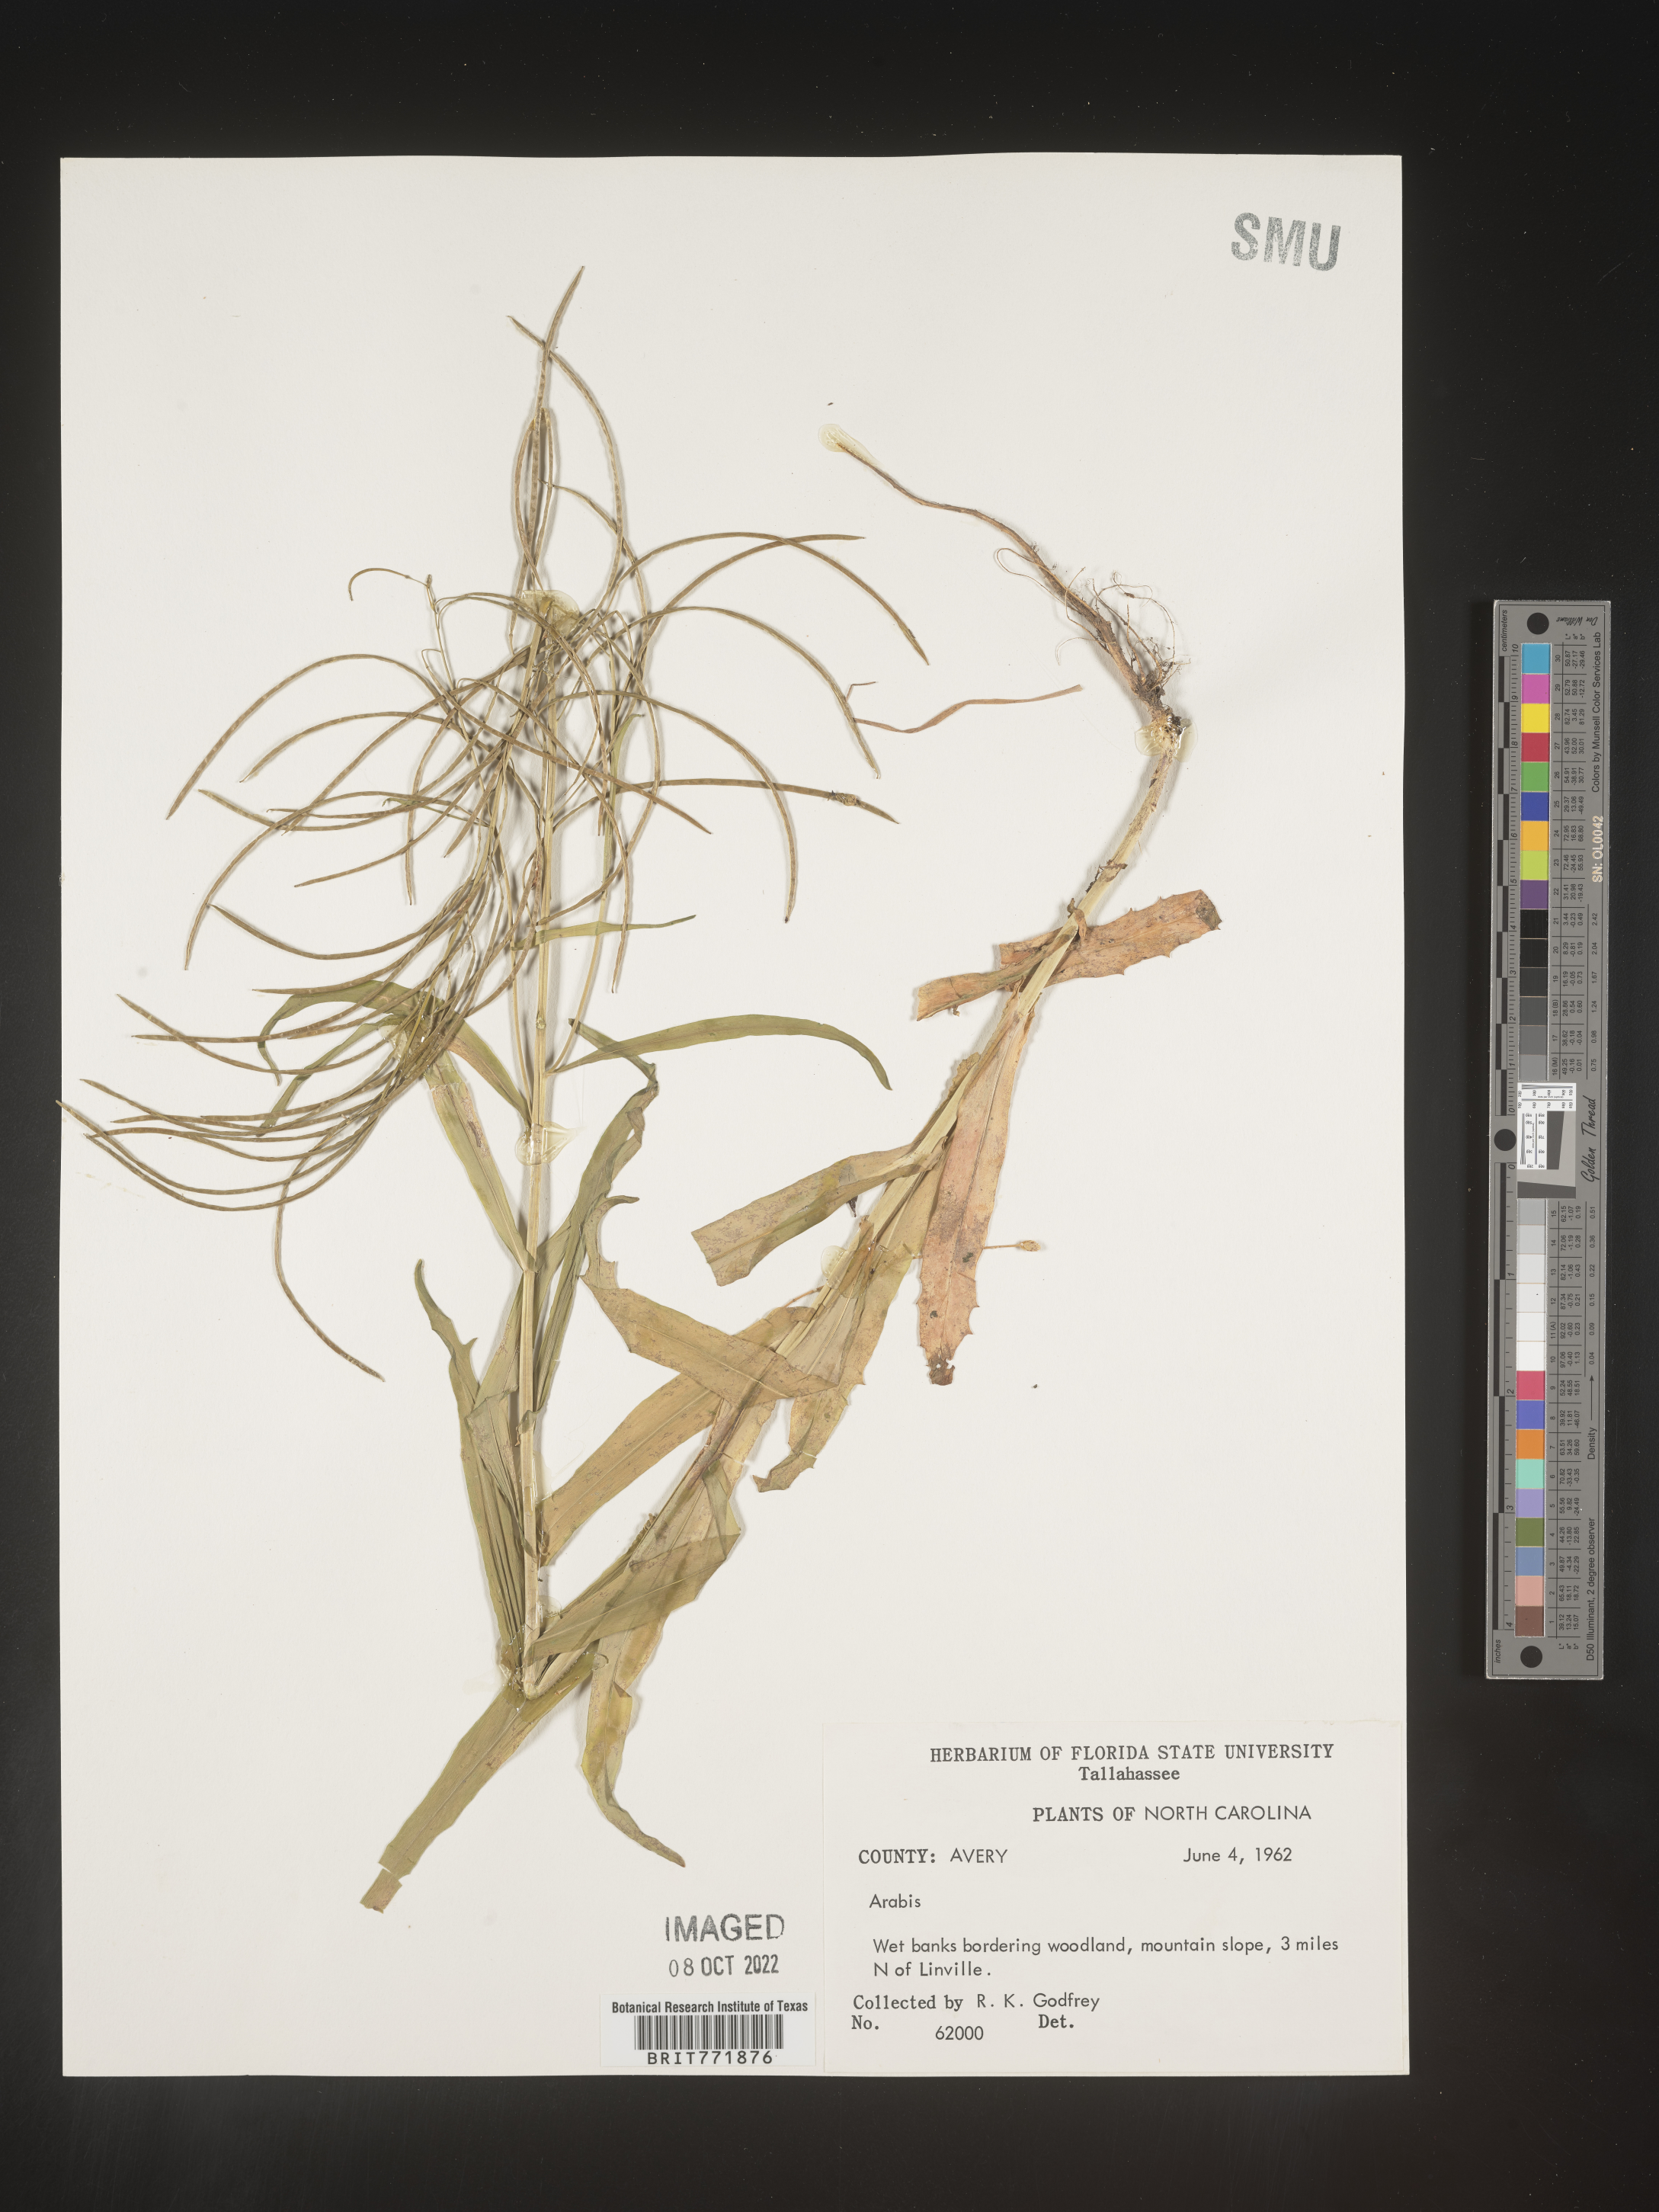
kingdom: Plantae
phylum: Tracheophyta
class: Magnoliopsida
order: Brassicales
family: Brassicaceae
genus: Arabis
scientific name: Arabis
